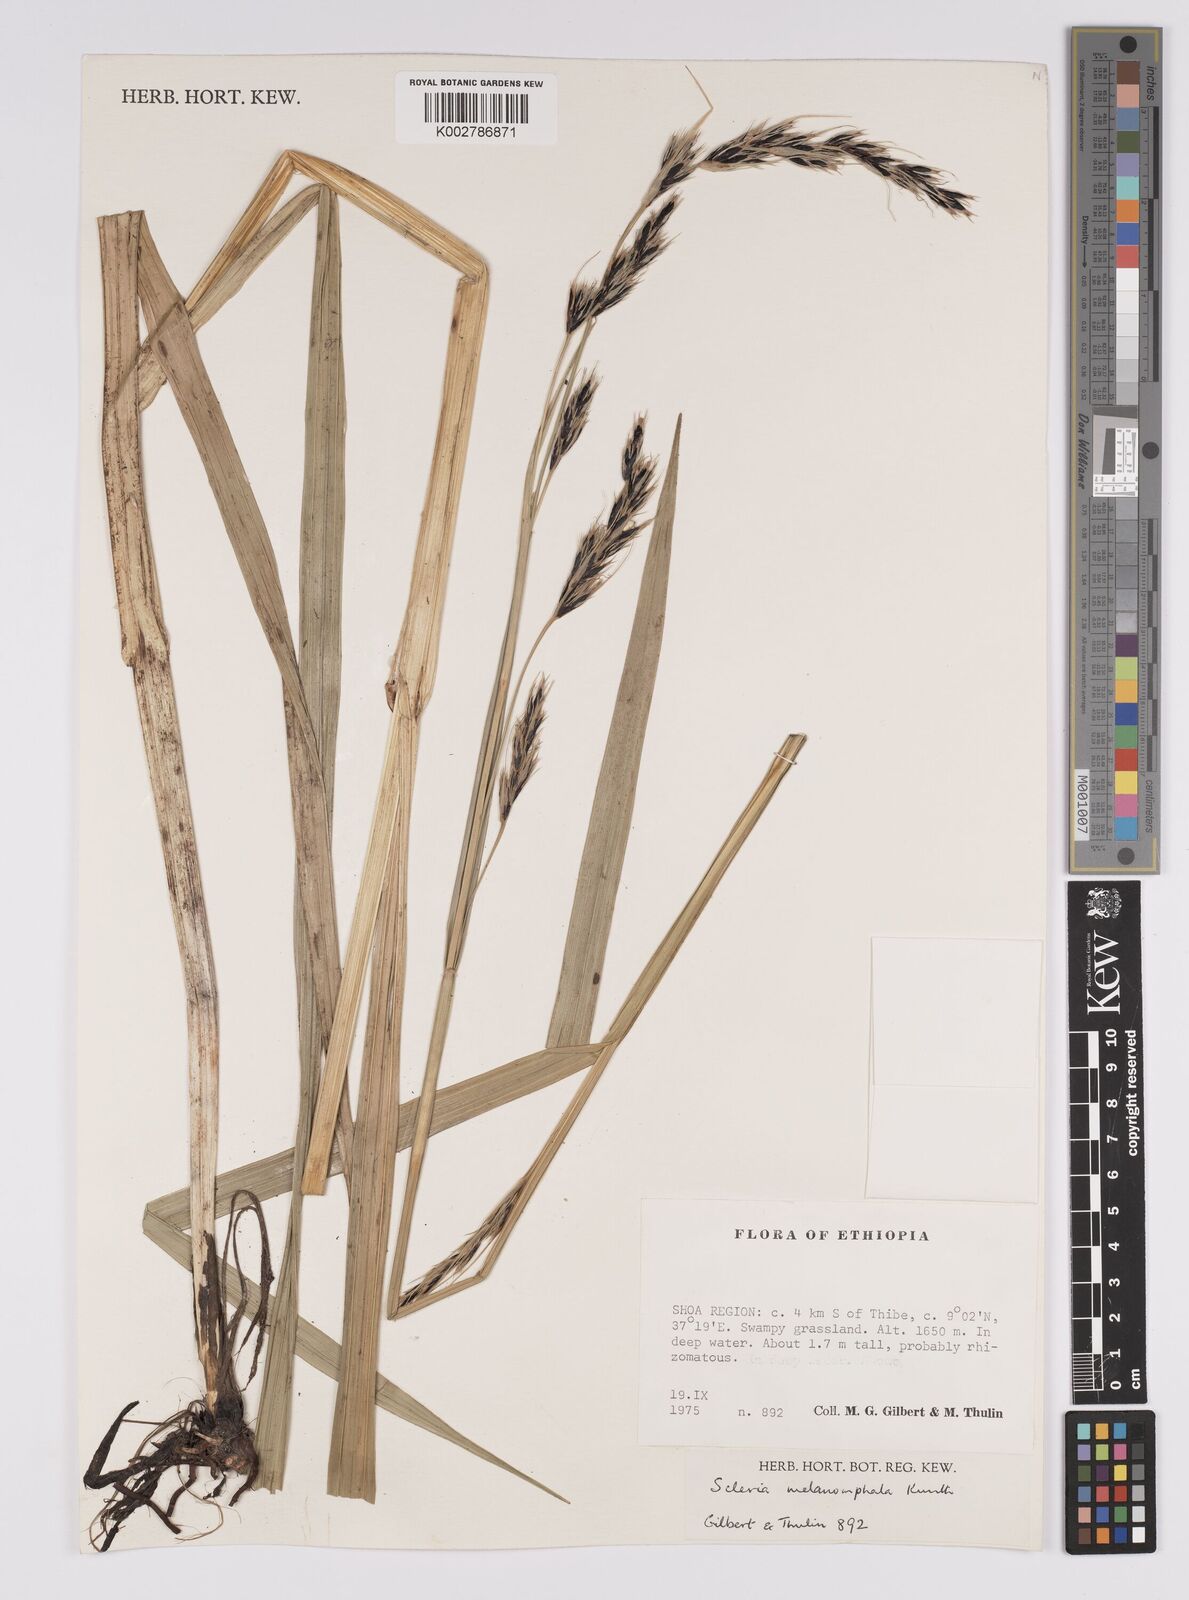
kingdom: Plantae
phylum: Tracheophyta
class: Liliopsida
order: Poales
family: Cyperaceae
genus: Scleria
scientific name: Scleria melanomphala
